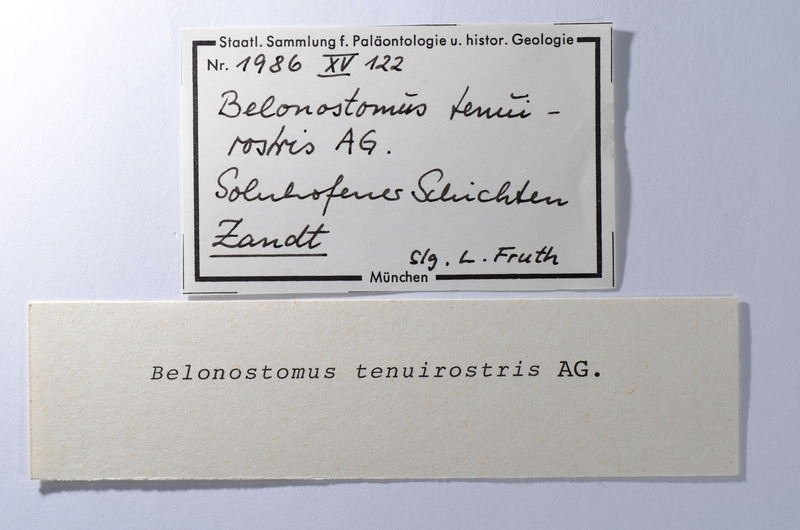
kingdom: Animalia
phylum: Chordata
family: Aspidorhynchidae
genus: Belonostomus
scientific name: Belonostomus tenuirostris
